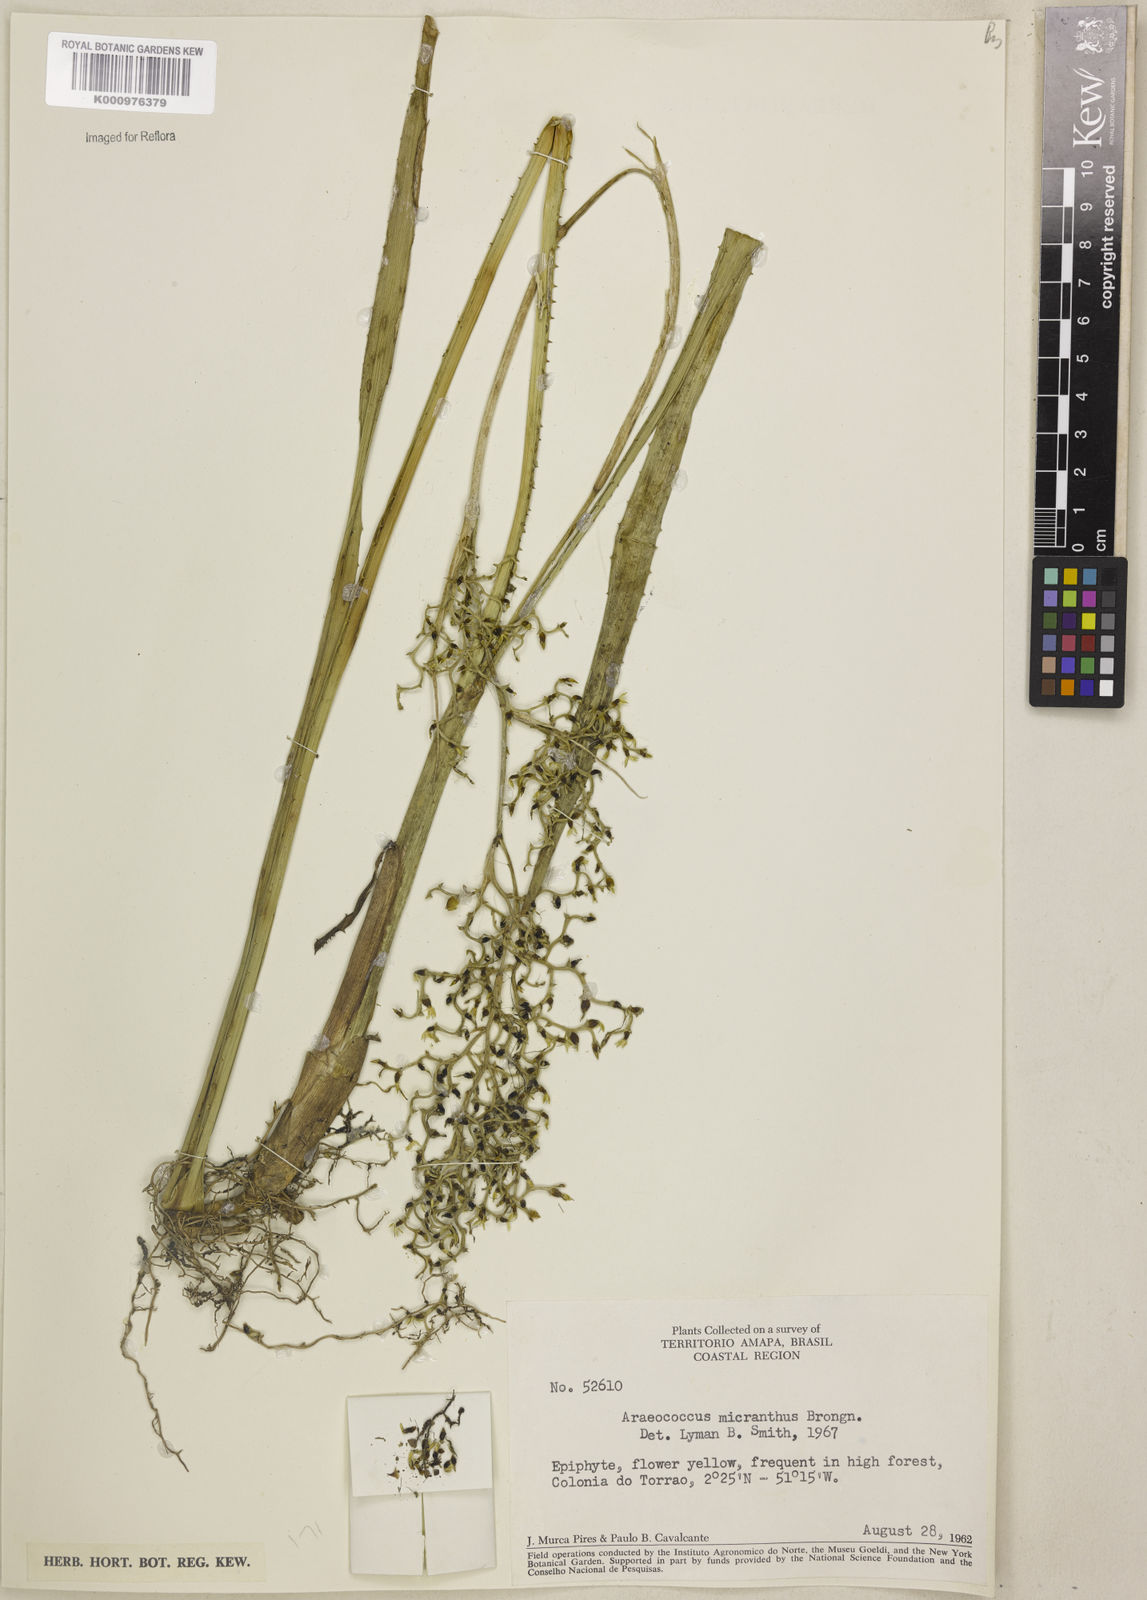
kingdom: Plantae
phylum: Tracheophyta
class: Liliopsida
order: Poales
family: Bromeliaceae
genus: Araeococcus
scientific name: Araeococcus micranthus
